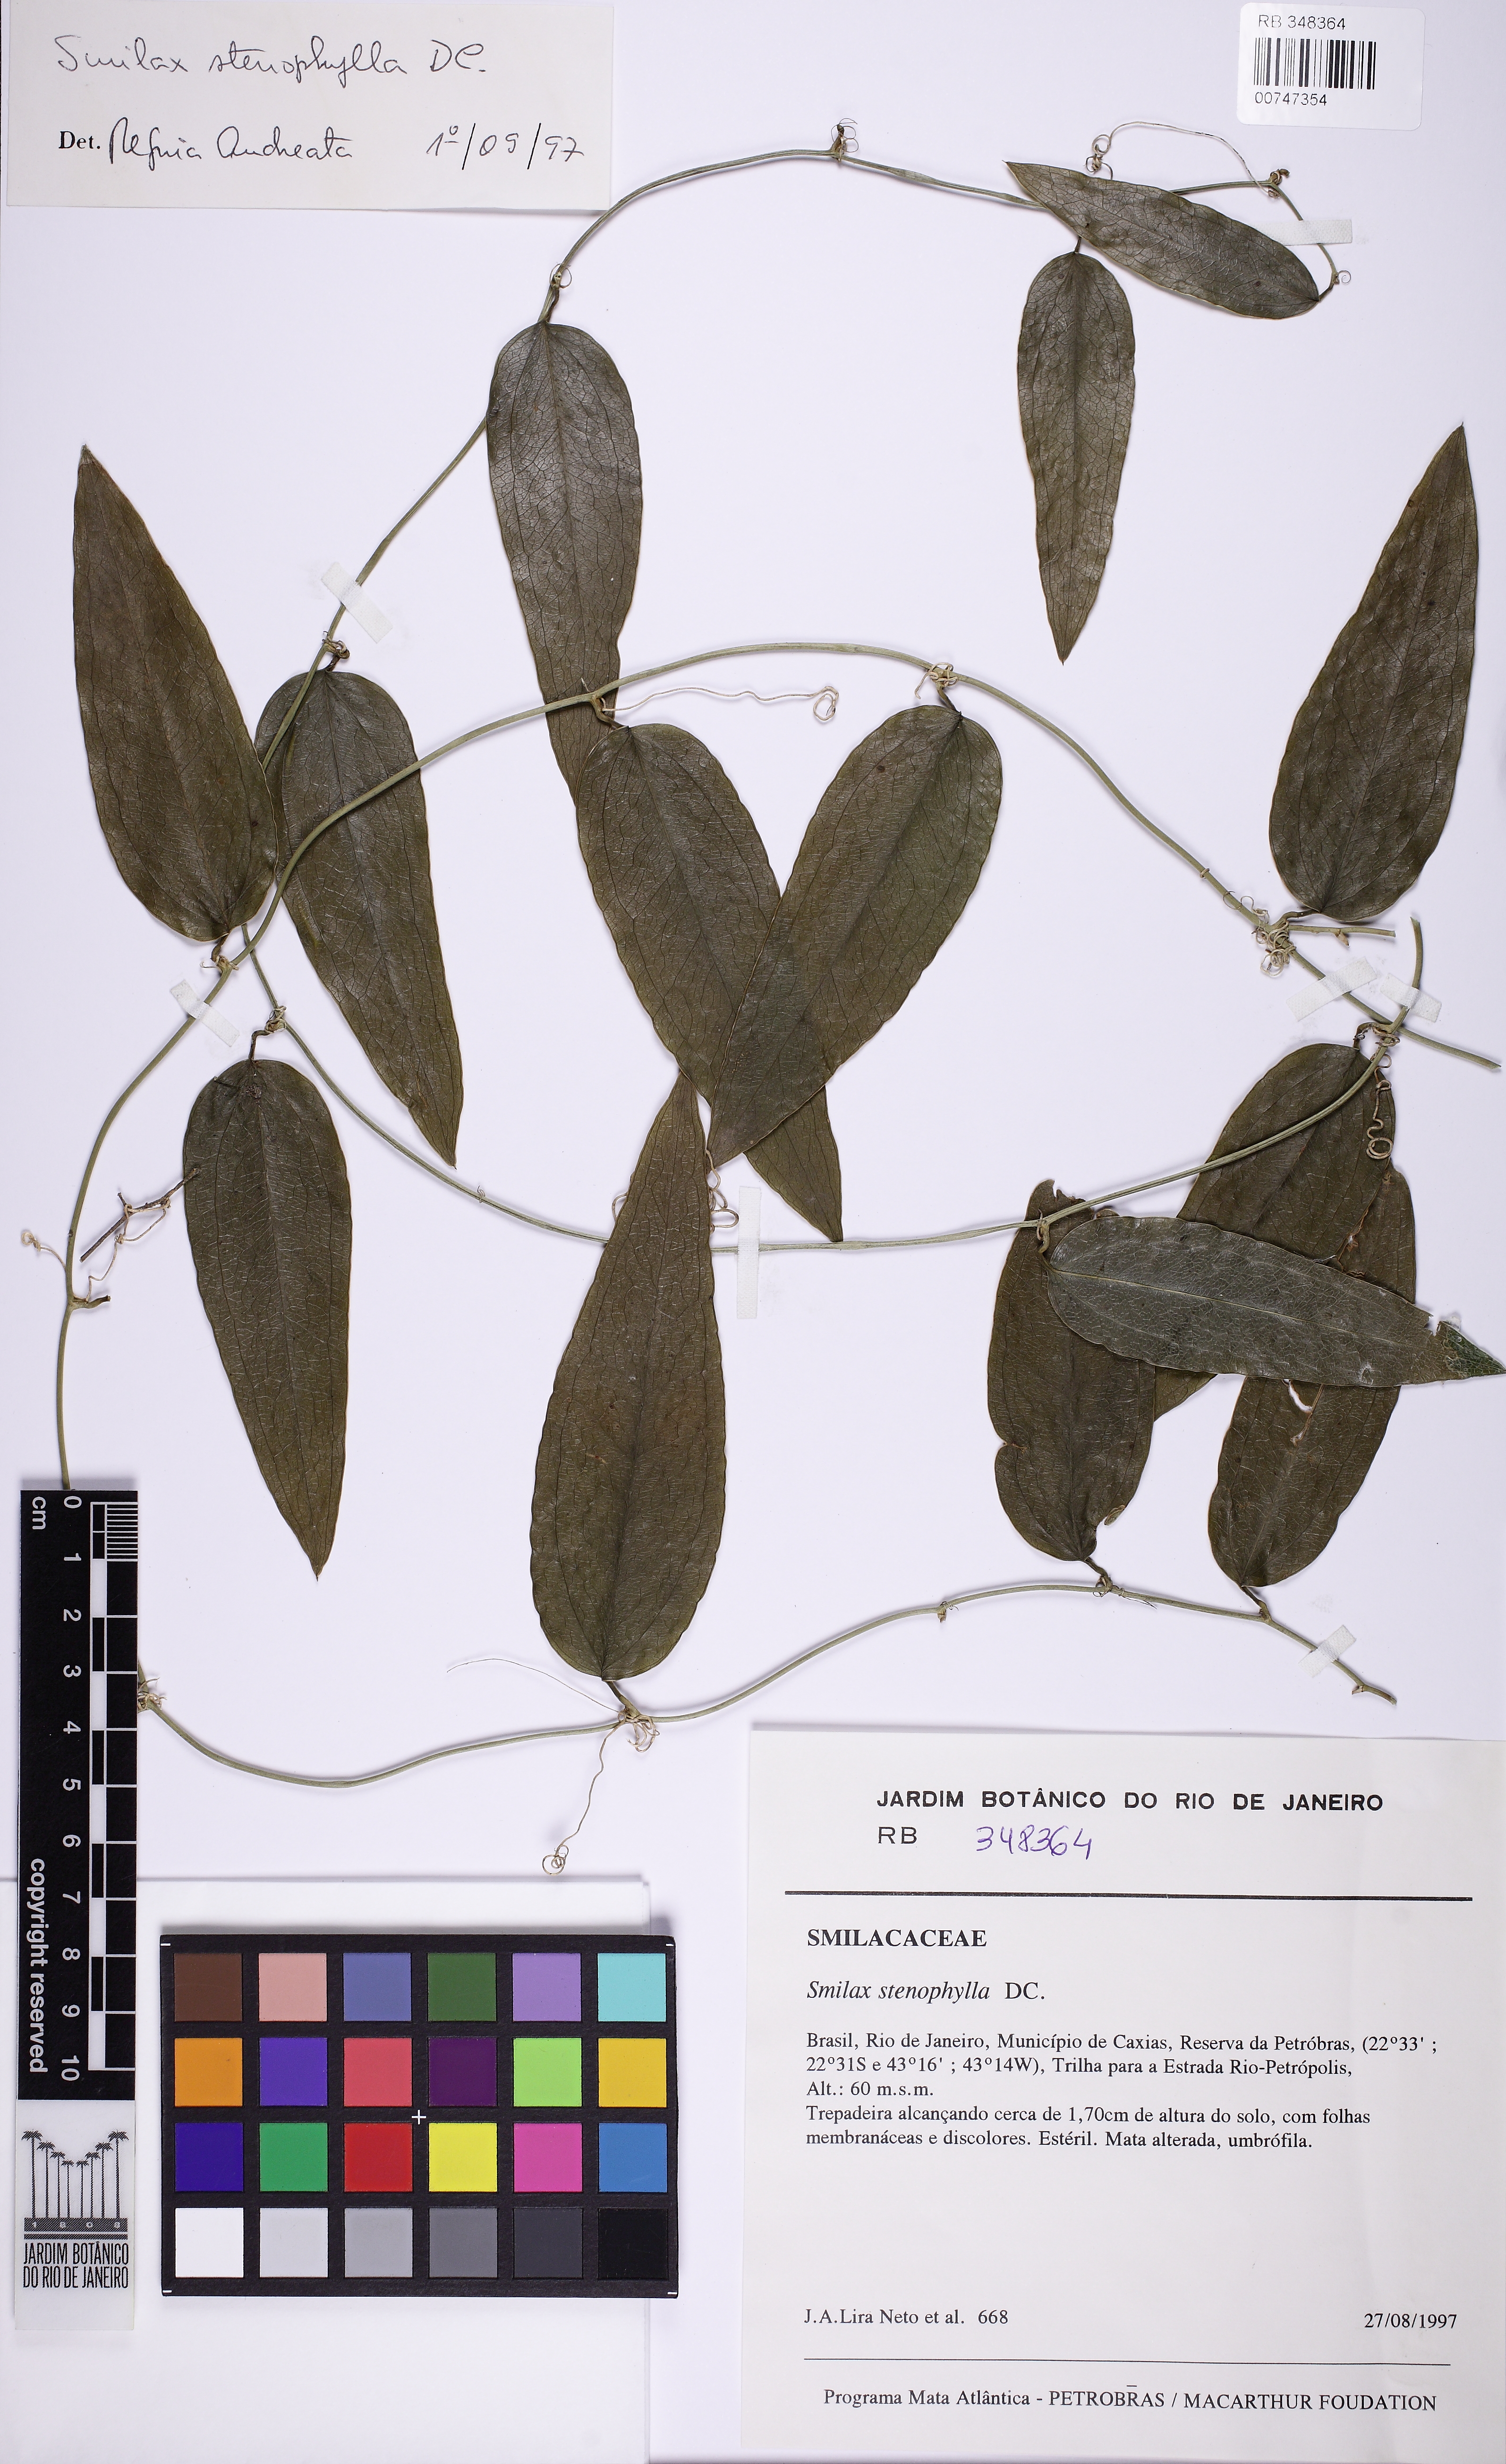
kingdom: Plantae
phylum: Tracheophyta
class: Liliopsida
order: Liliales
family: Smilacaceae
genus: Smilax
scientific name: Smilax stenophylla
